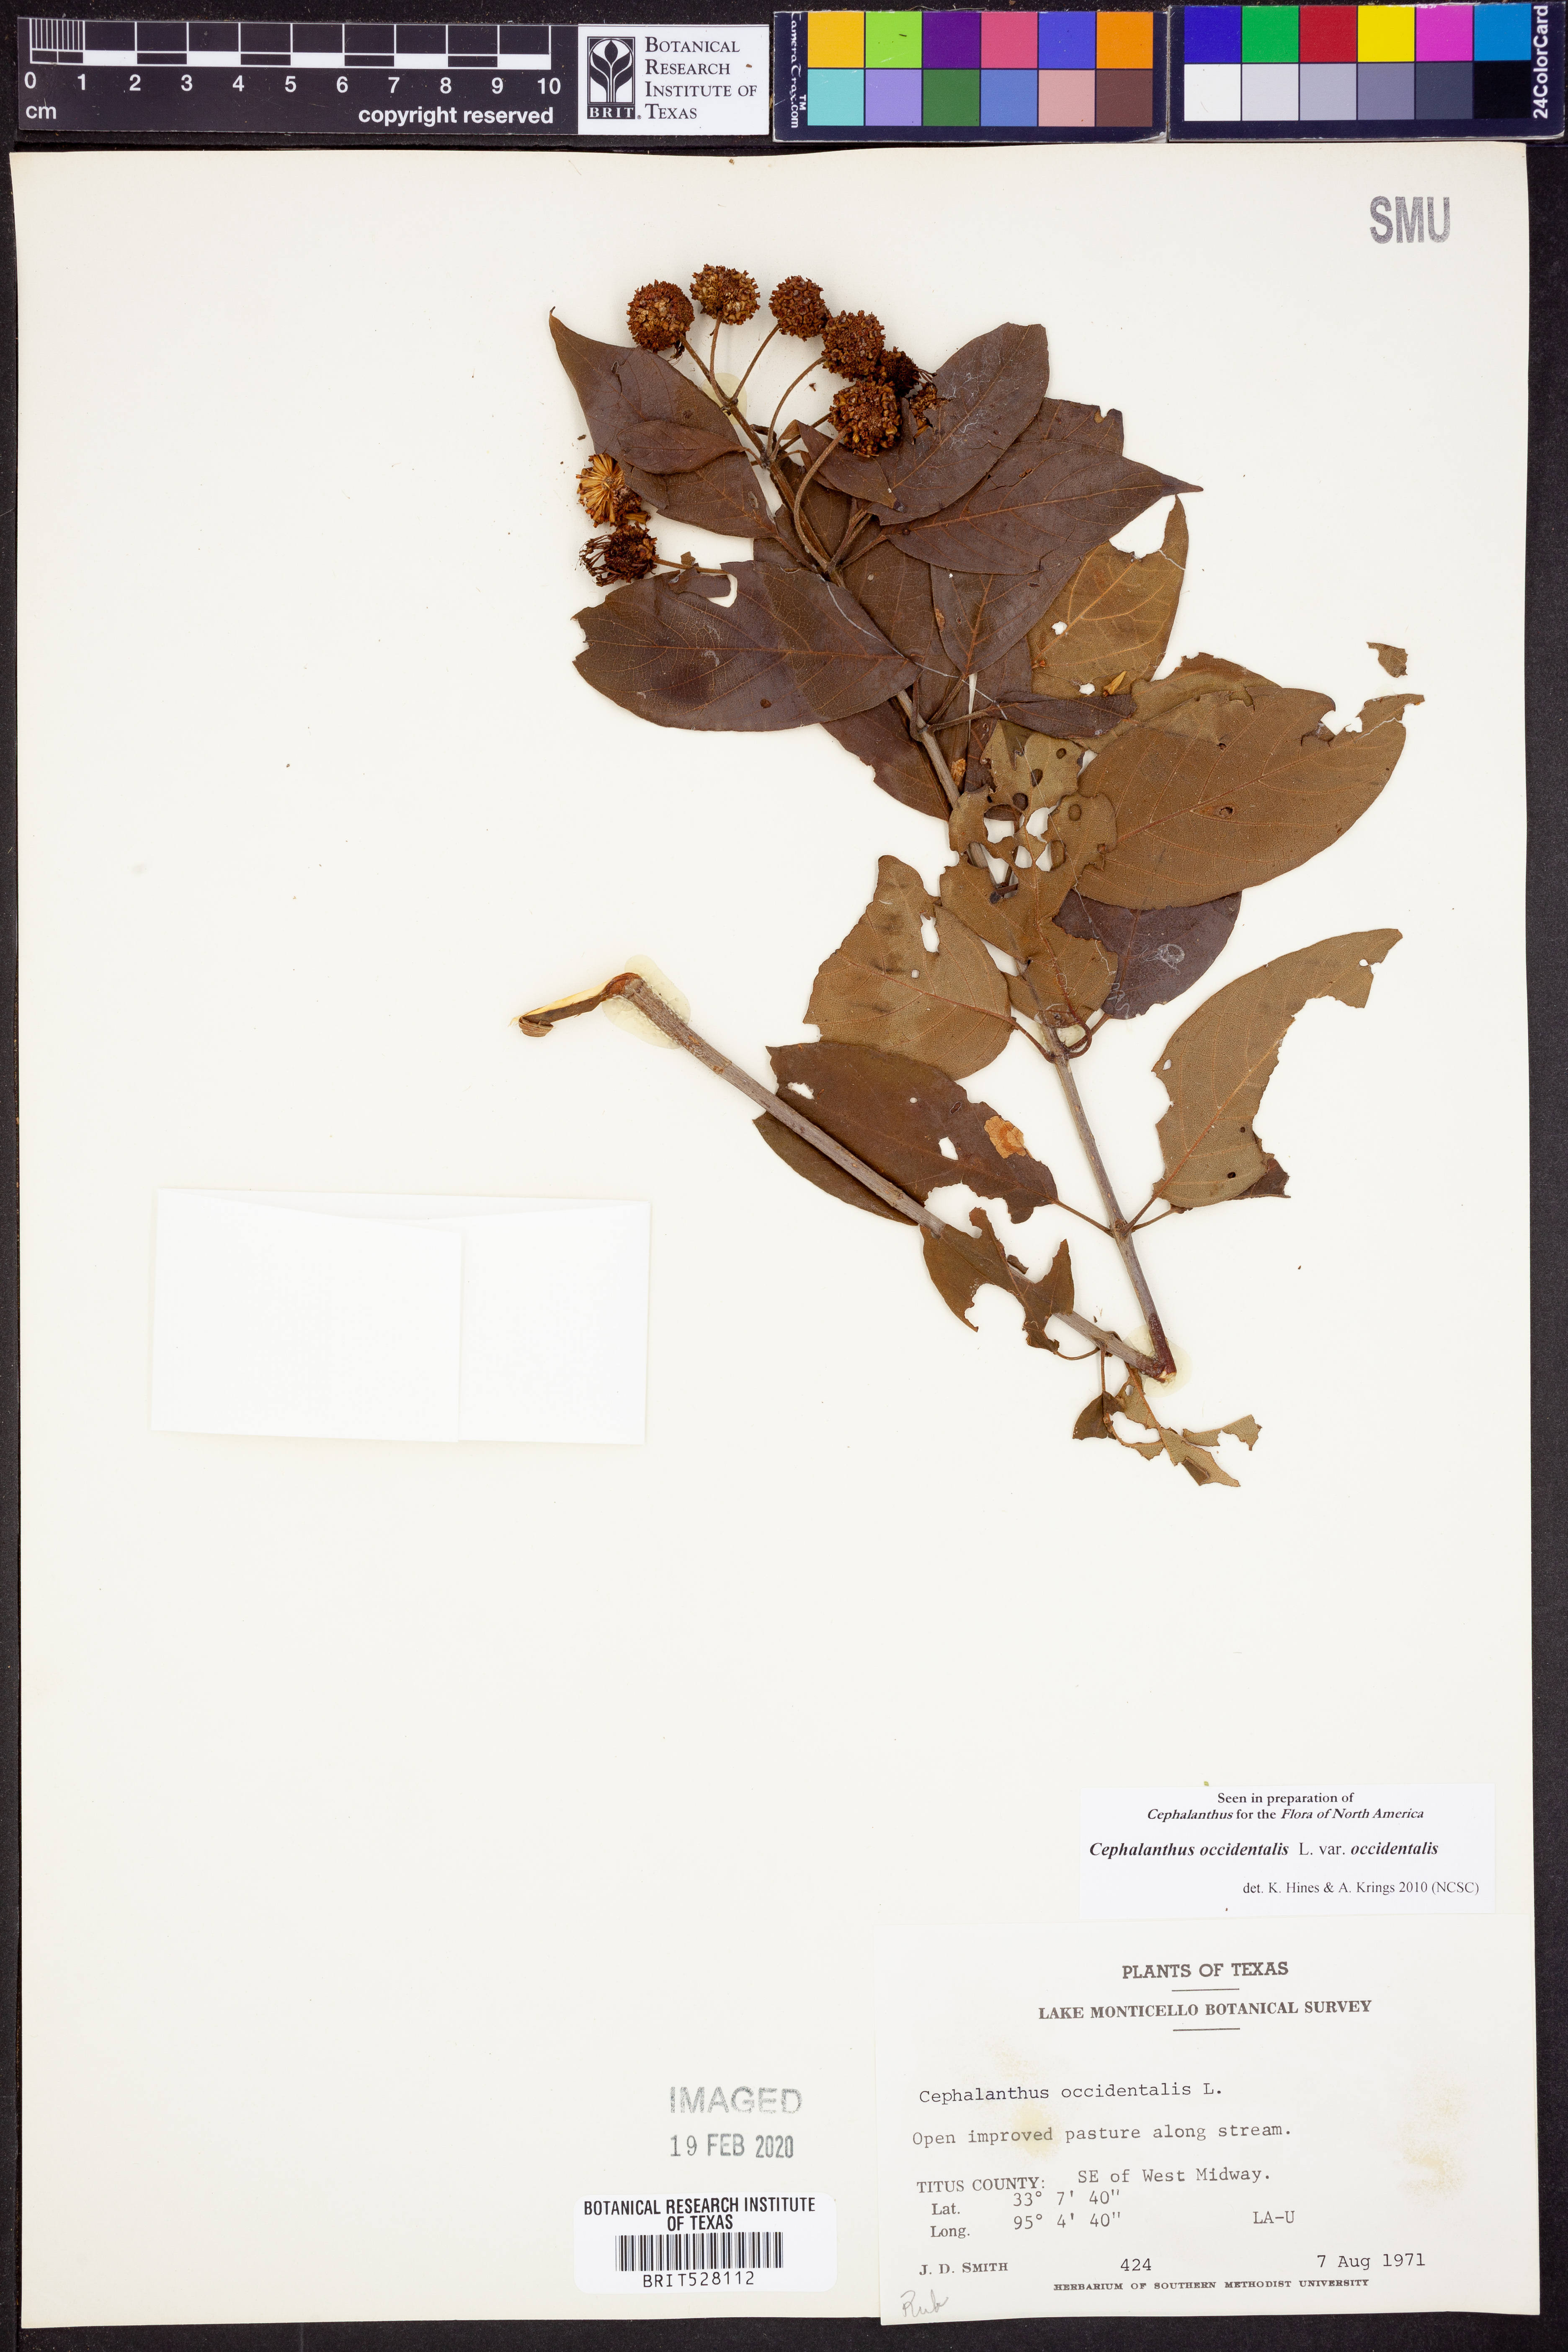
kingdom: Plantae
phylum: Tracheophyta
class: Magnoliopsida
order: Gentianales
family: Rubiaceae
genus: Cephalanthus
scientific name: Cephalanthus occidentalis
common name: Button-willow
